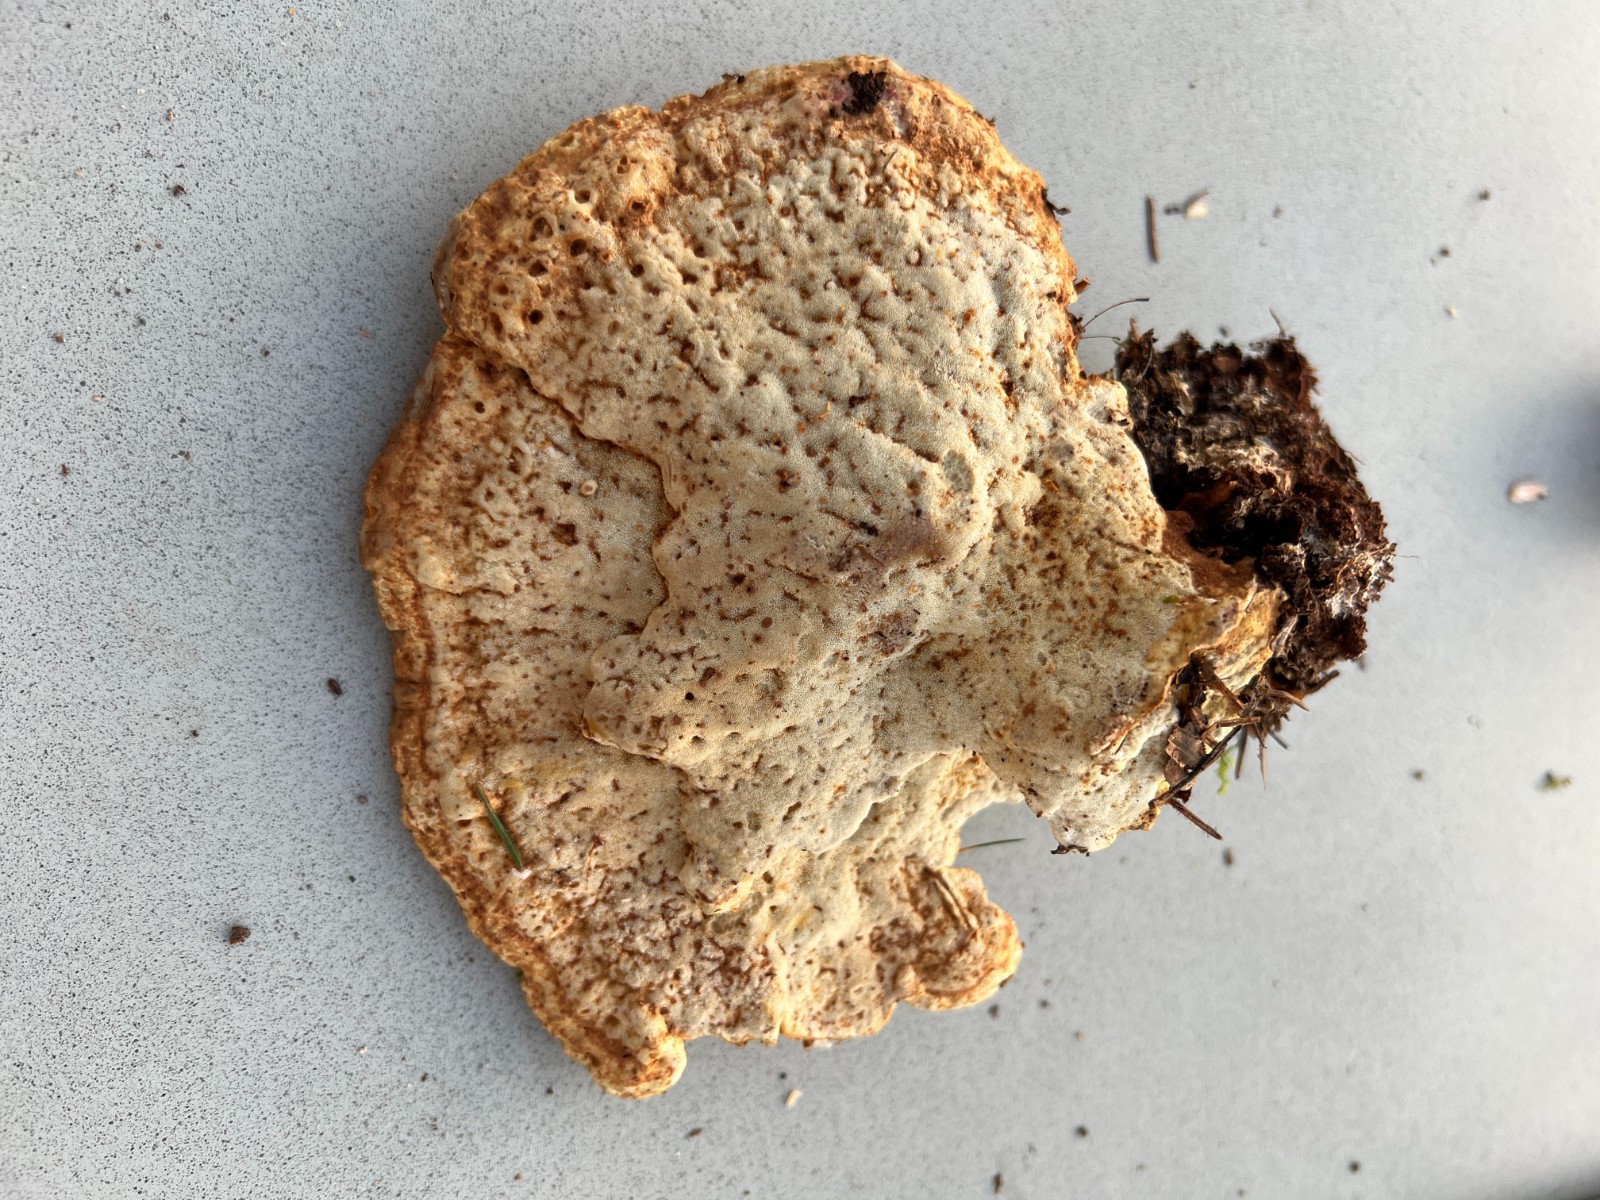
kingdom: Fungi
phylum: Basidiomycota
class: Agaricomycetes
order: Polyporales
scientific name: Polyporales
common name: poresvampordenen
